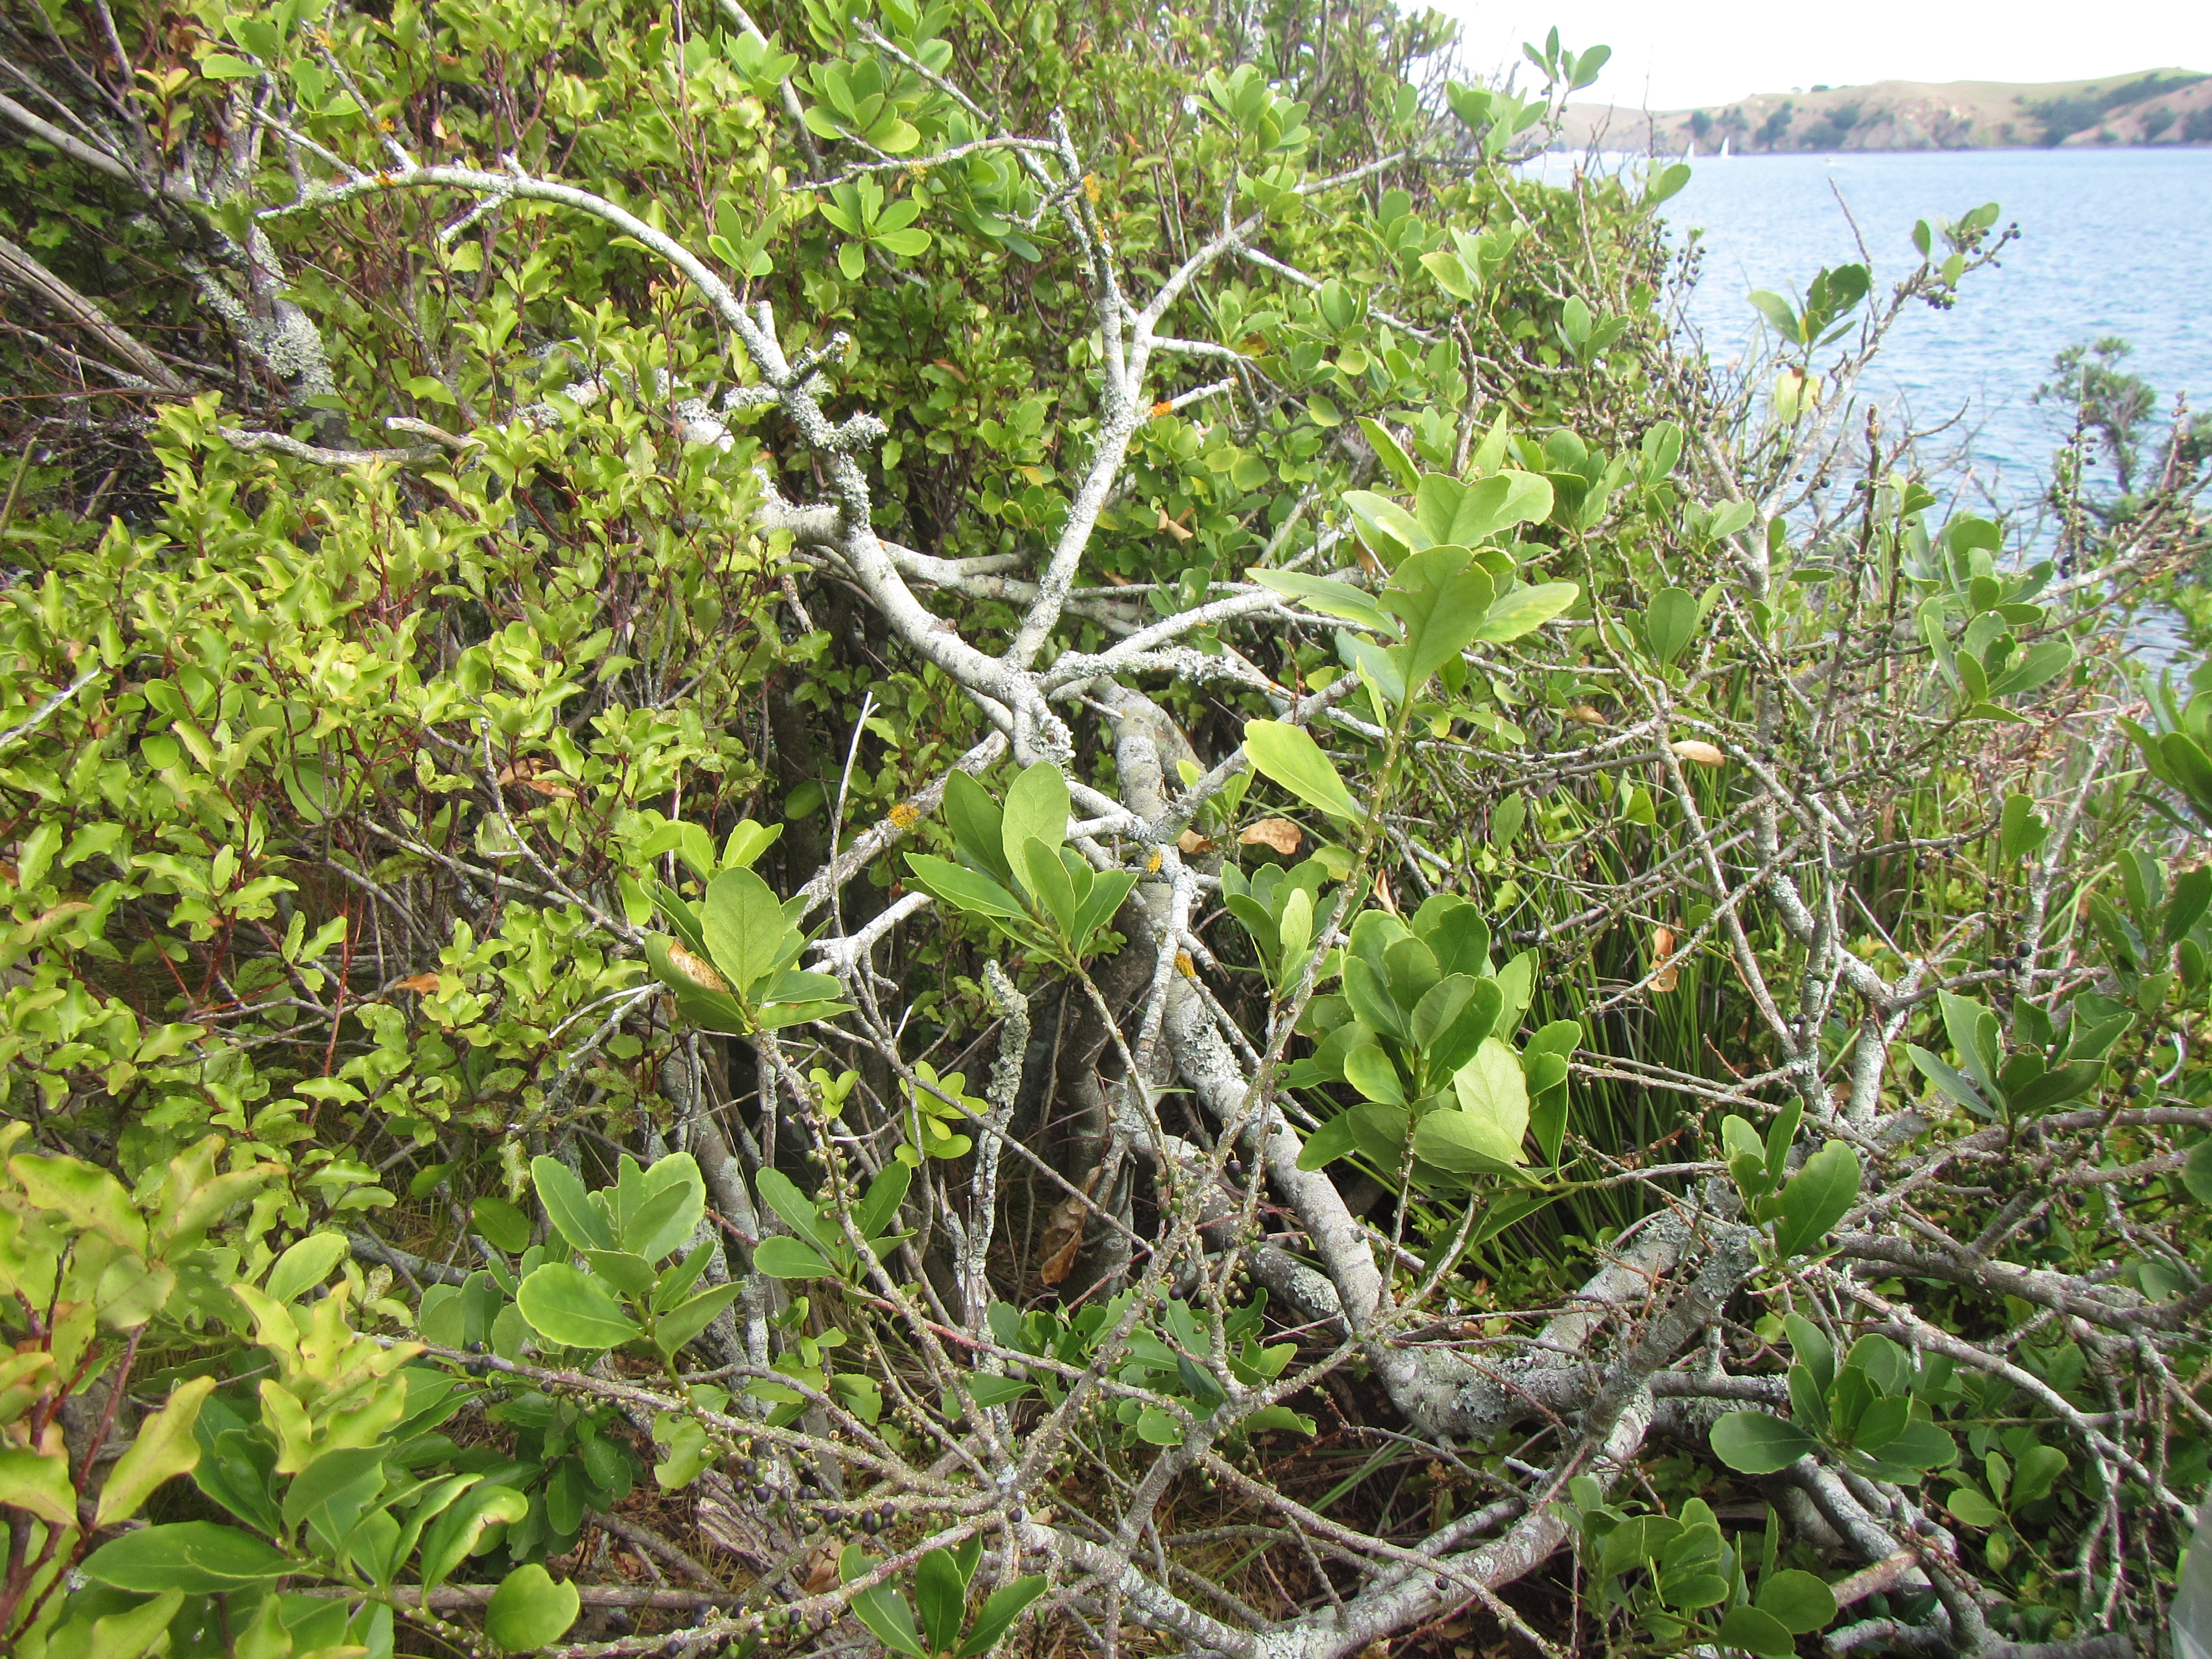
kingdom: Plantae
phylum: Tracheophyta
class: Magnoliopsida
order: Malpighiales
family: Violaceae
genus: Melicytus
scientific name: Melicytus novae-zelandiae
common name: Coastal mahoe
